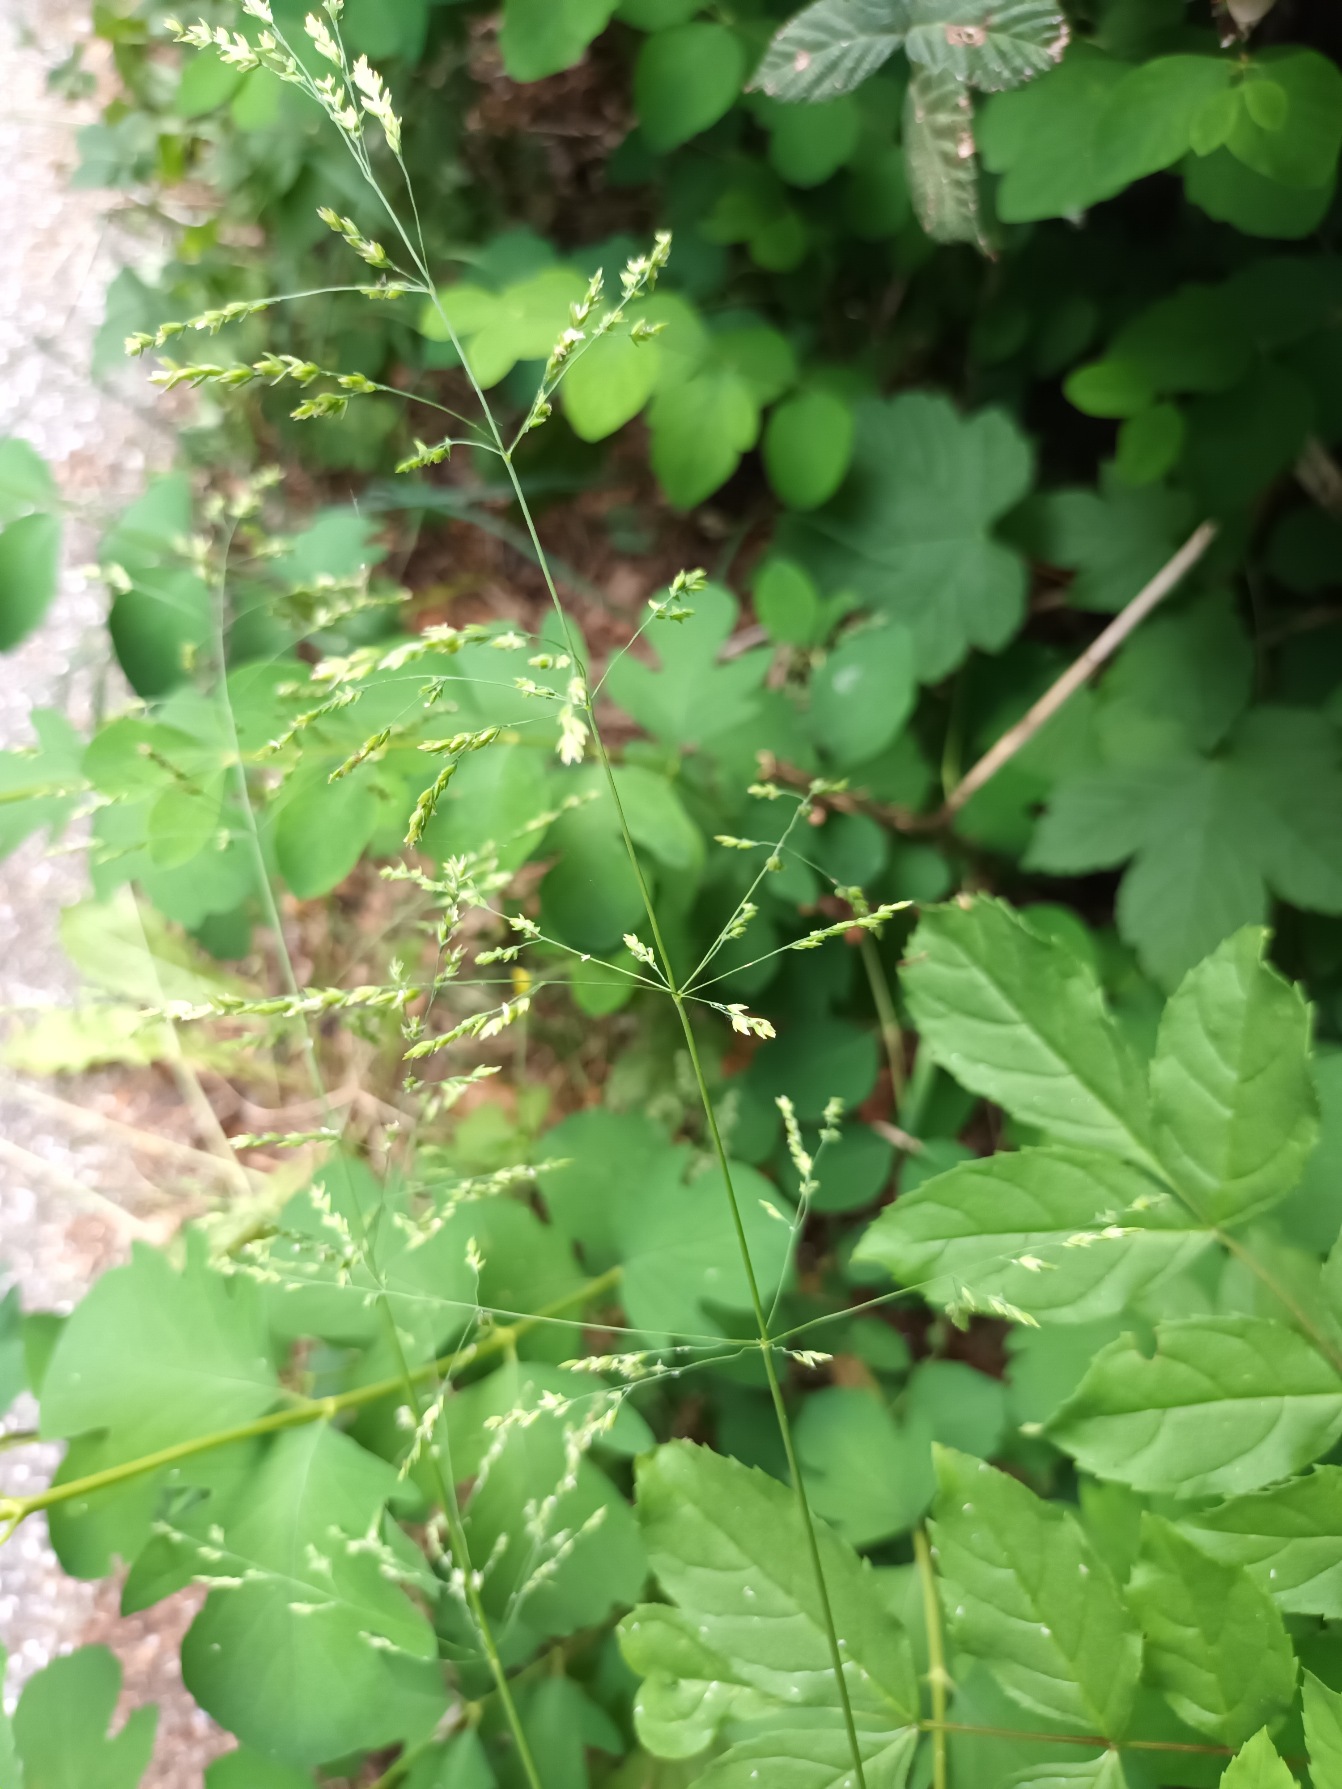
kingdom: Plantae
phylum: Tracheophyta
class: Liliopsida
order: Poales
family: Poaceae
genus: Poa
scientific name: Poa trivialis
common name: Almindelig rapgræs
